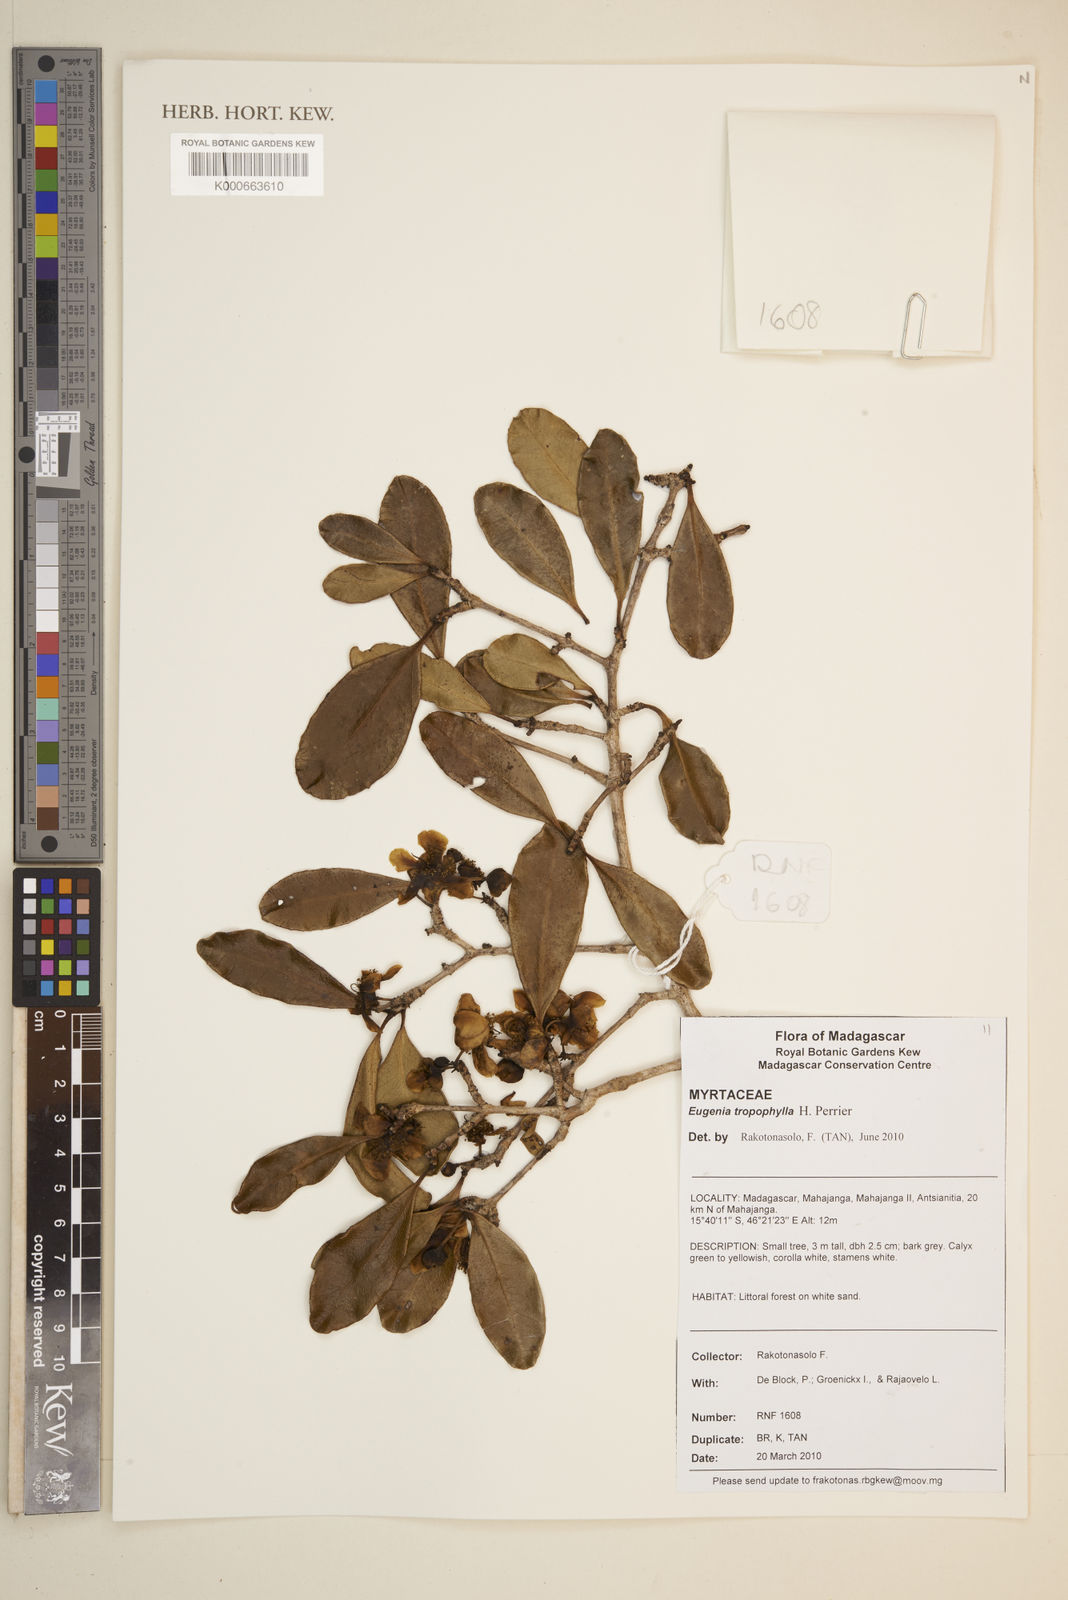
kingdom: Plantae
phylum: Tracheophyta
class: Magnoliopsida
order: Myrtales
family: Myrtaceae
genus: Eugenia
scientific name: Eugenia tropophylla
